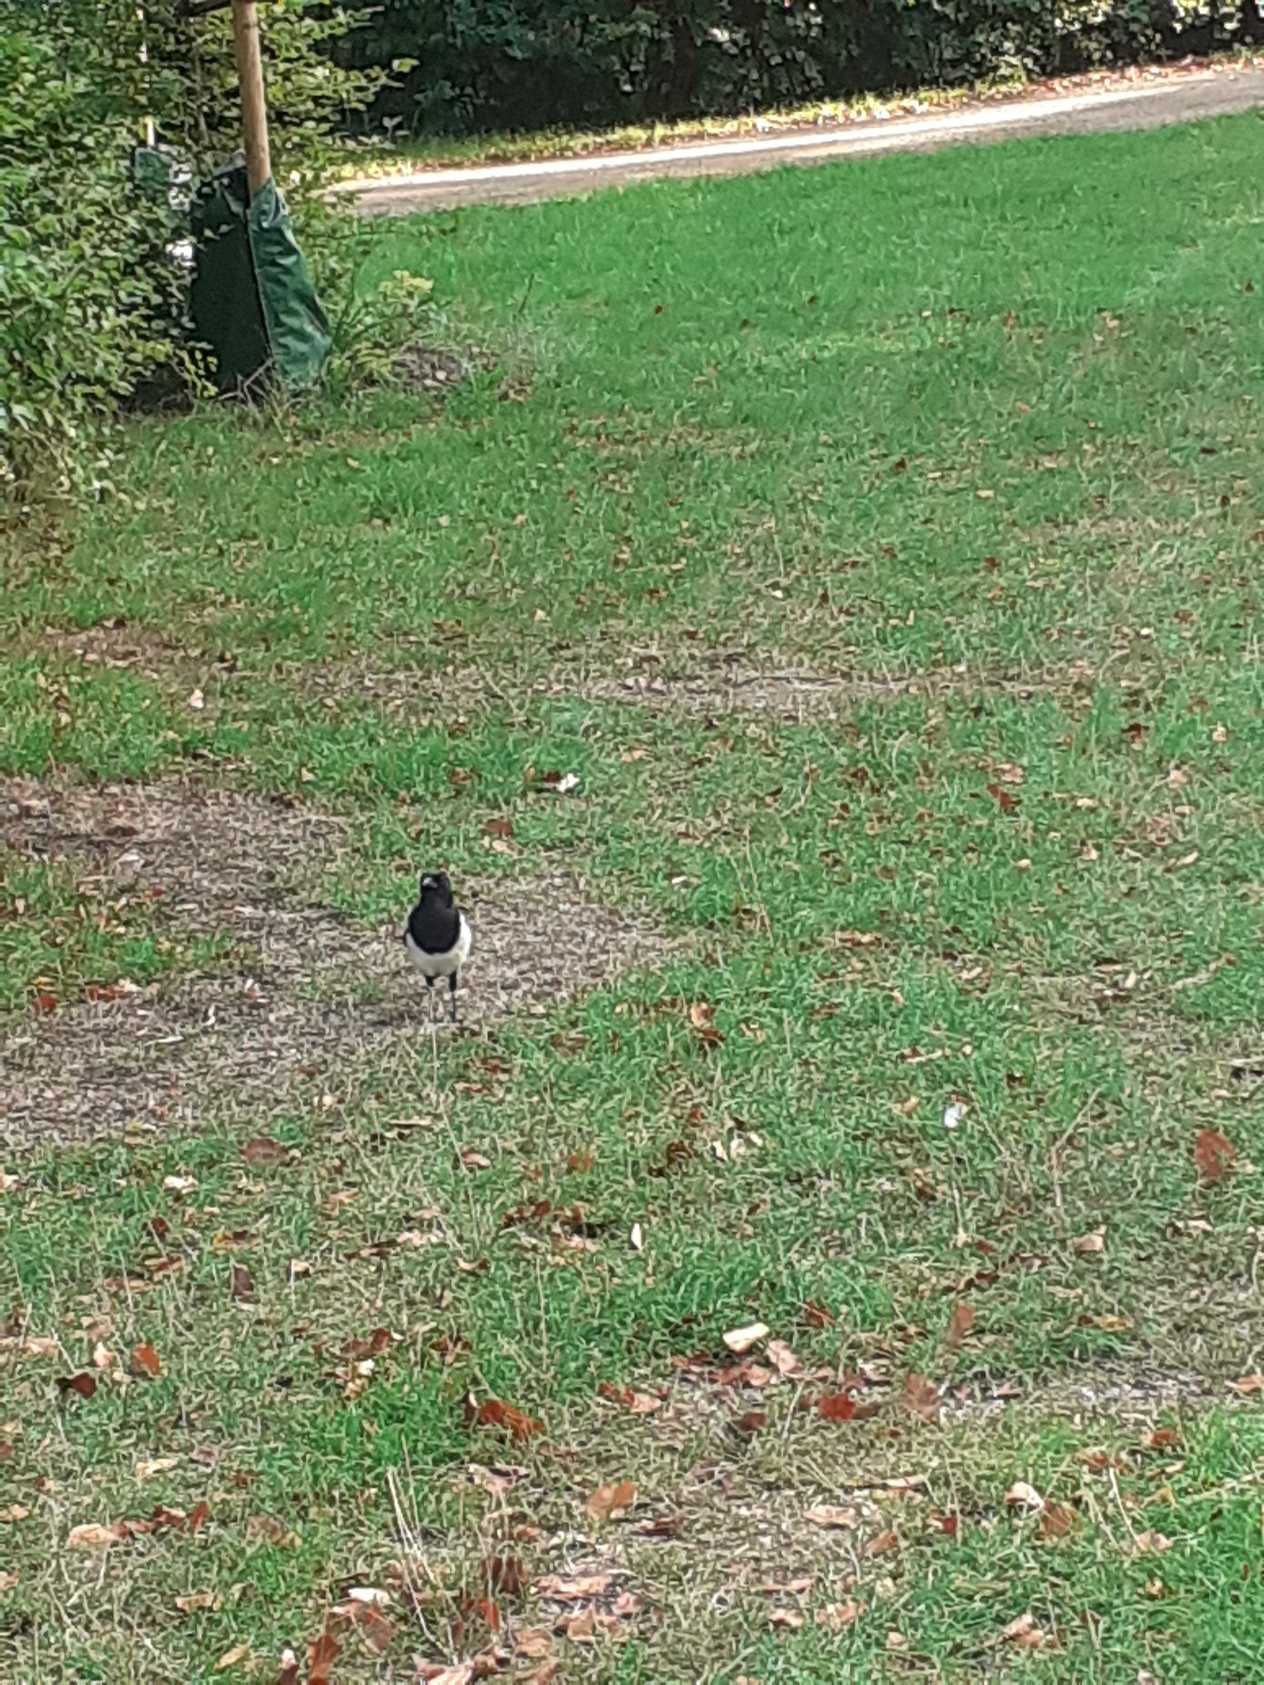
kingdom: Animalia
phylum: Chordata
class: Aves
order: Passeriformes
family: Corvidae
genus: Pica
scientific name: Pica pica
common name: Husskade
